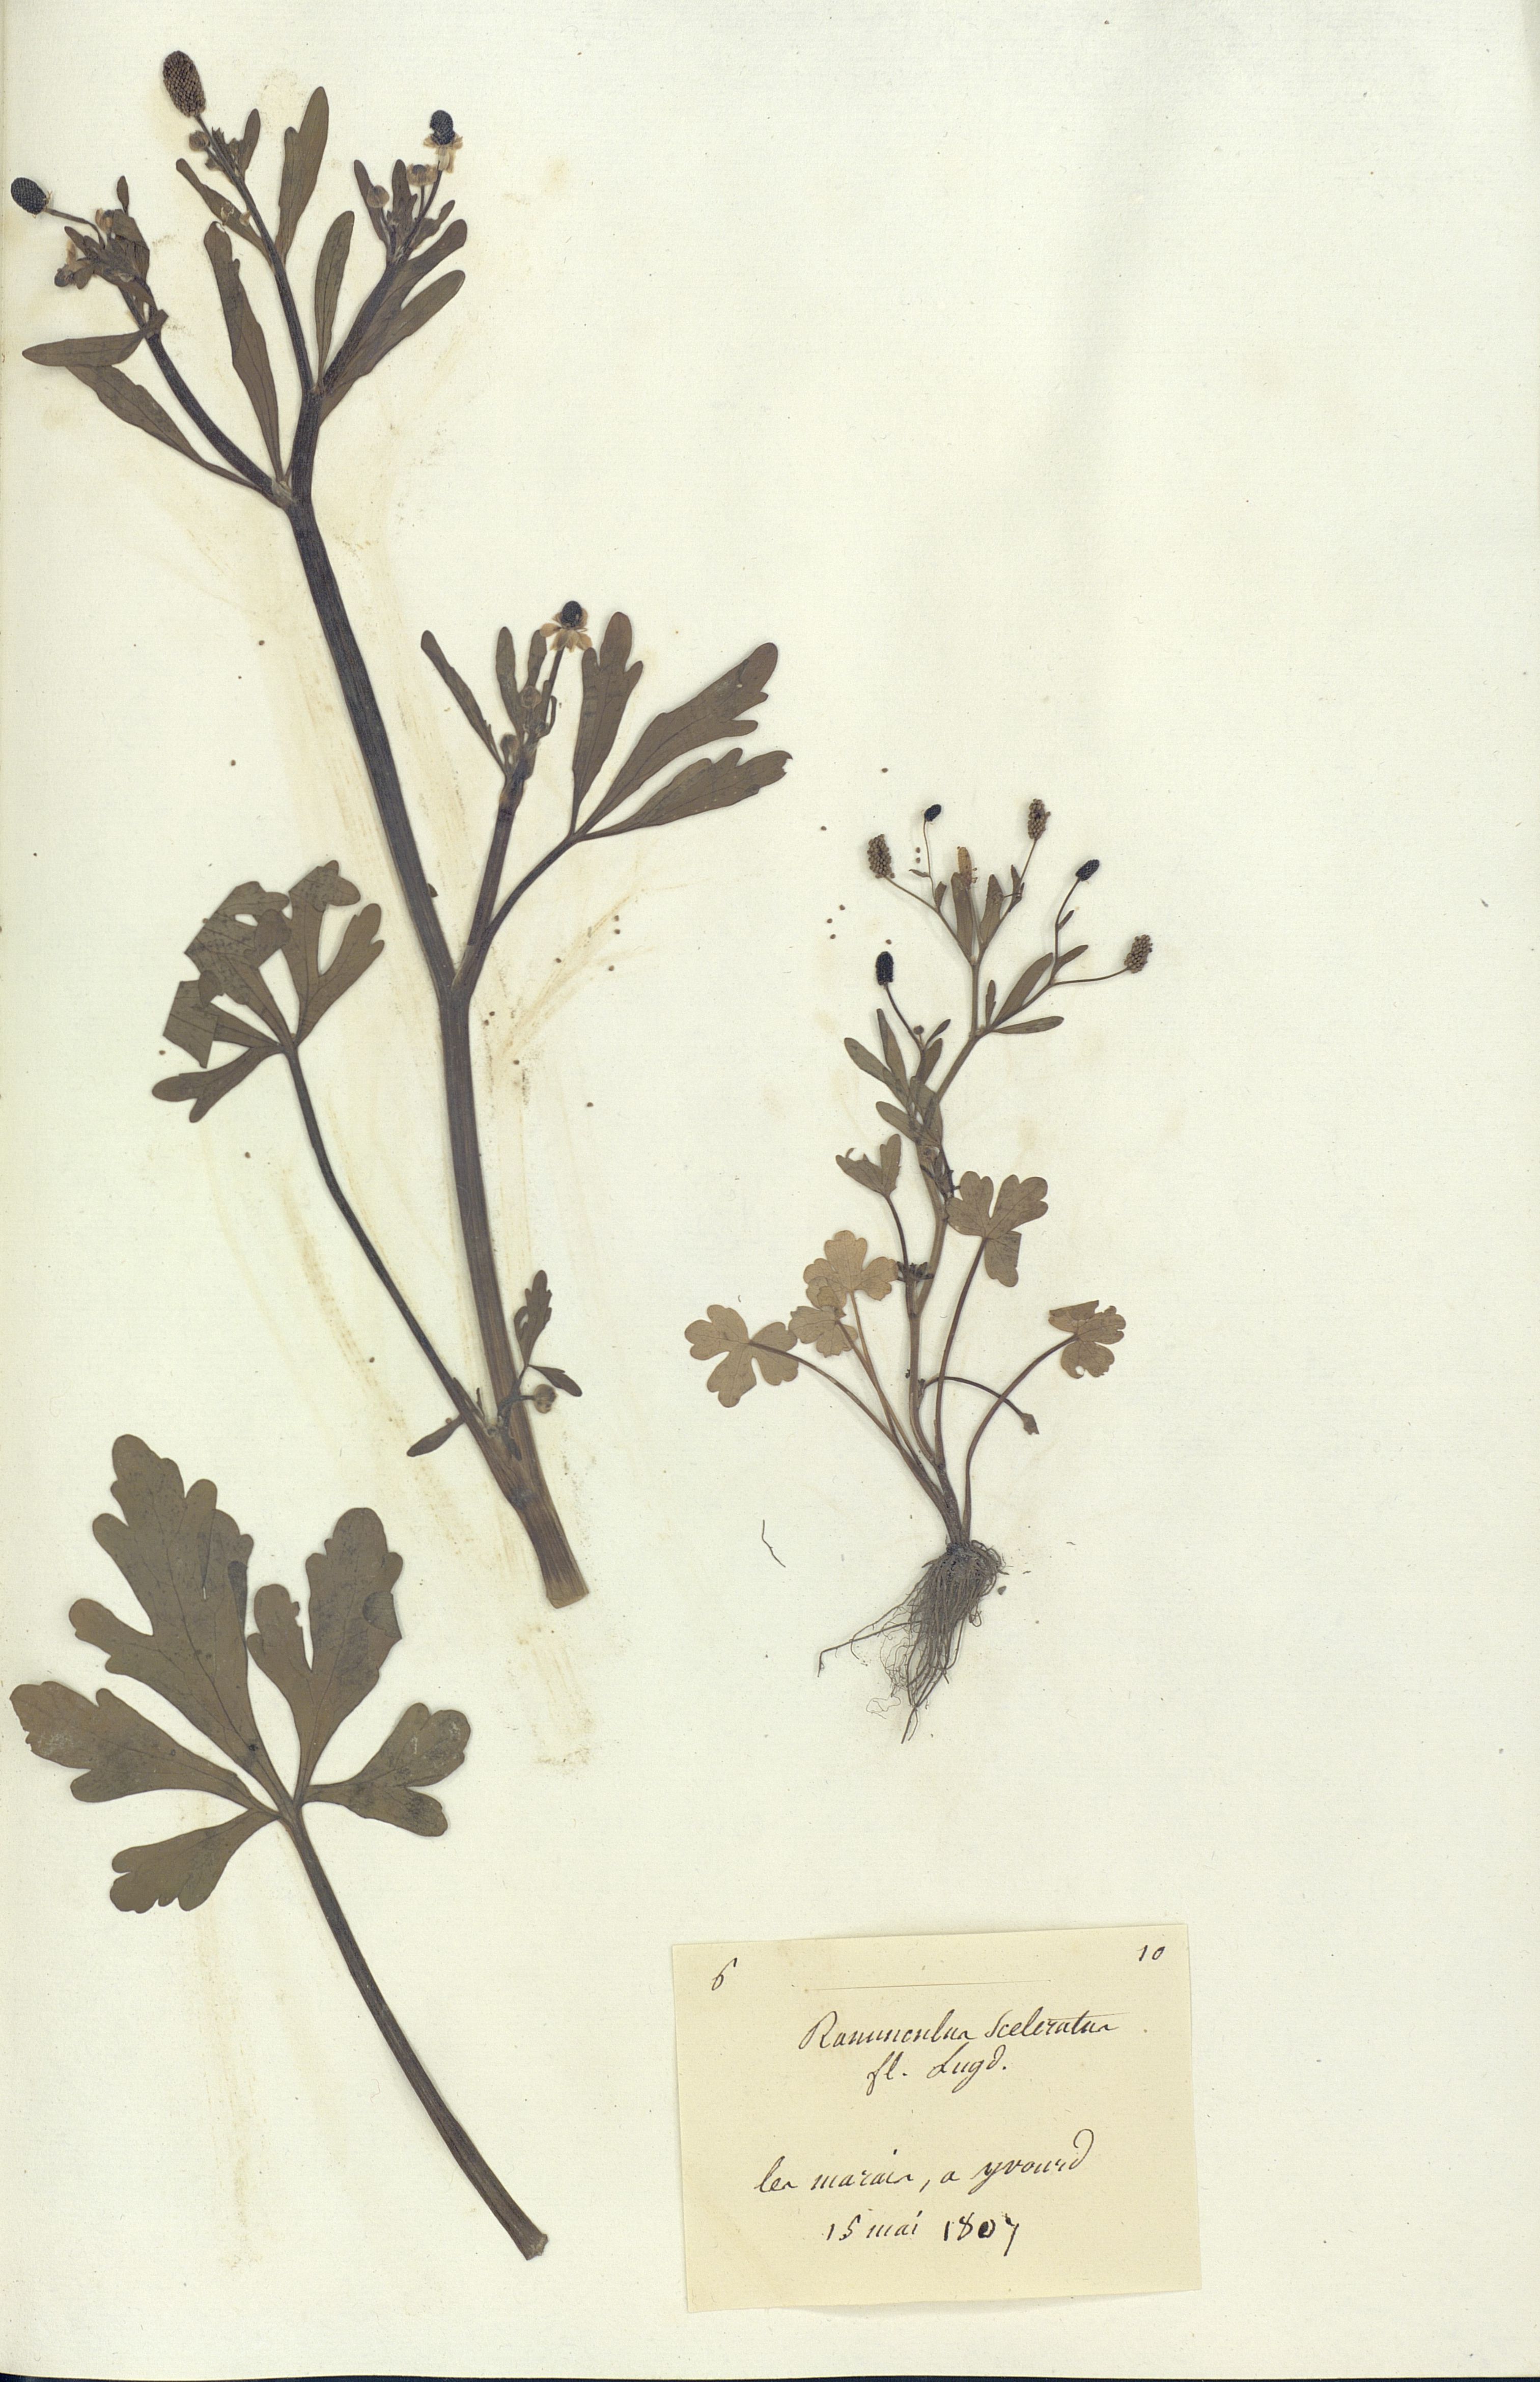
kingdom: Plantae
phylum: Tracheophyta
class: Magnoliopsida
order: Ranunculales
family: Ranunculaceae
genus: Ranunculus
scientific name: Ranunculus sceleratus
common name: Celery-leaved buttercup
